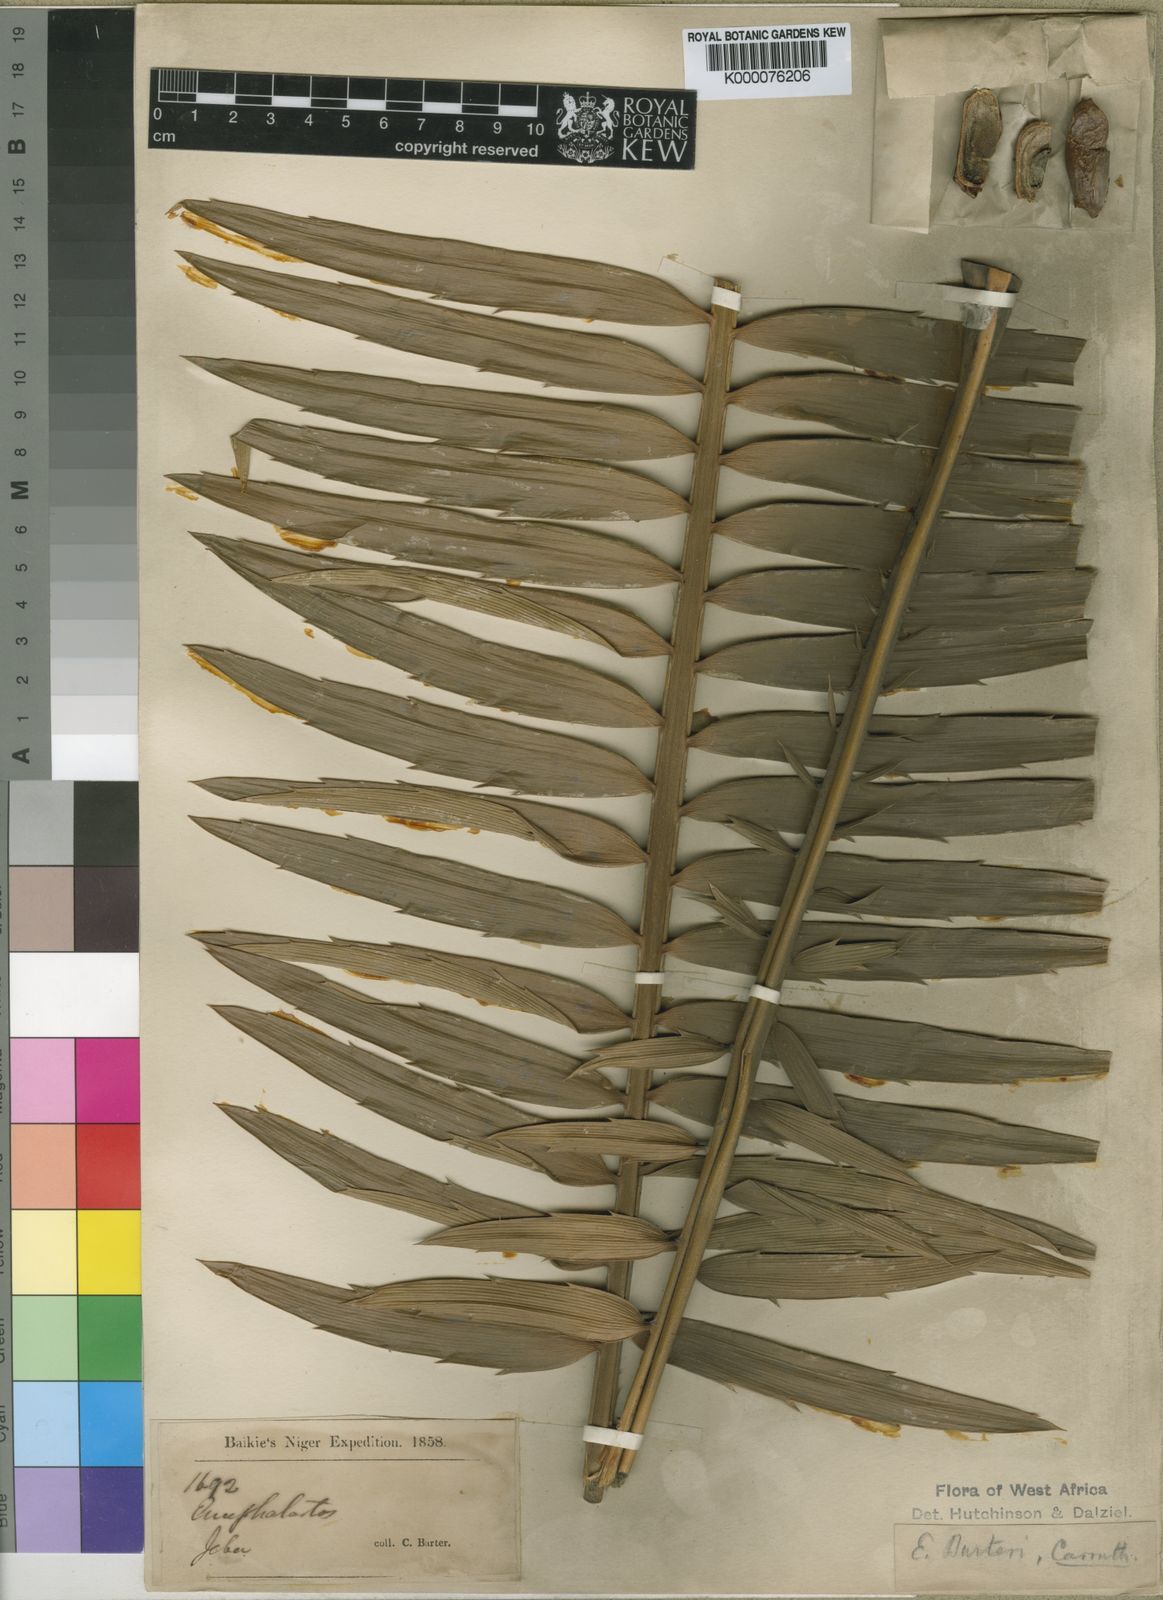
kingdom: Plantae
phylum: Tracheophyta
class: Cycadopsida
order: Cycadales
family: Zamiaceae
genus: Encephalartos
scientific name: Encephalartos barteri
